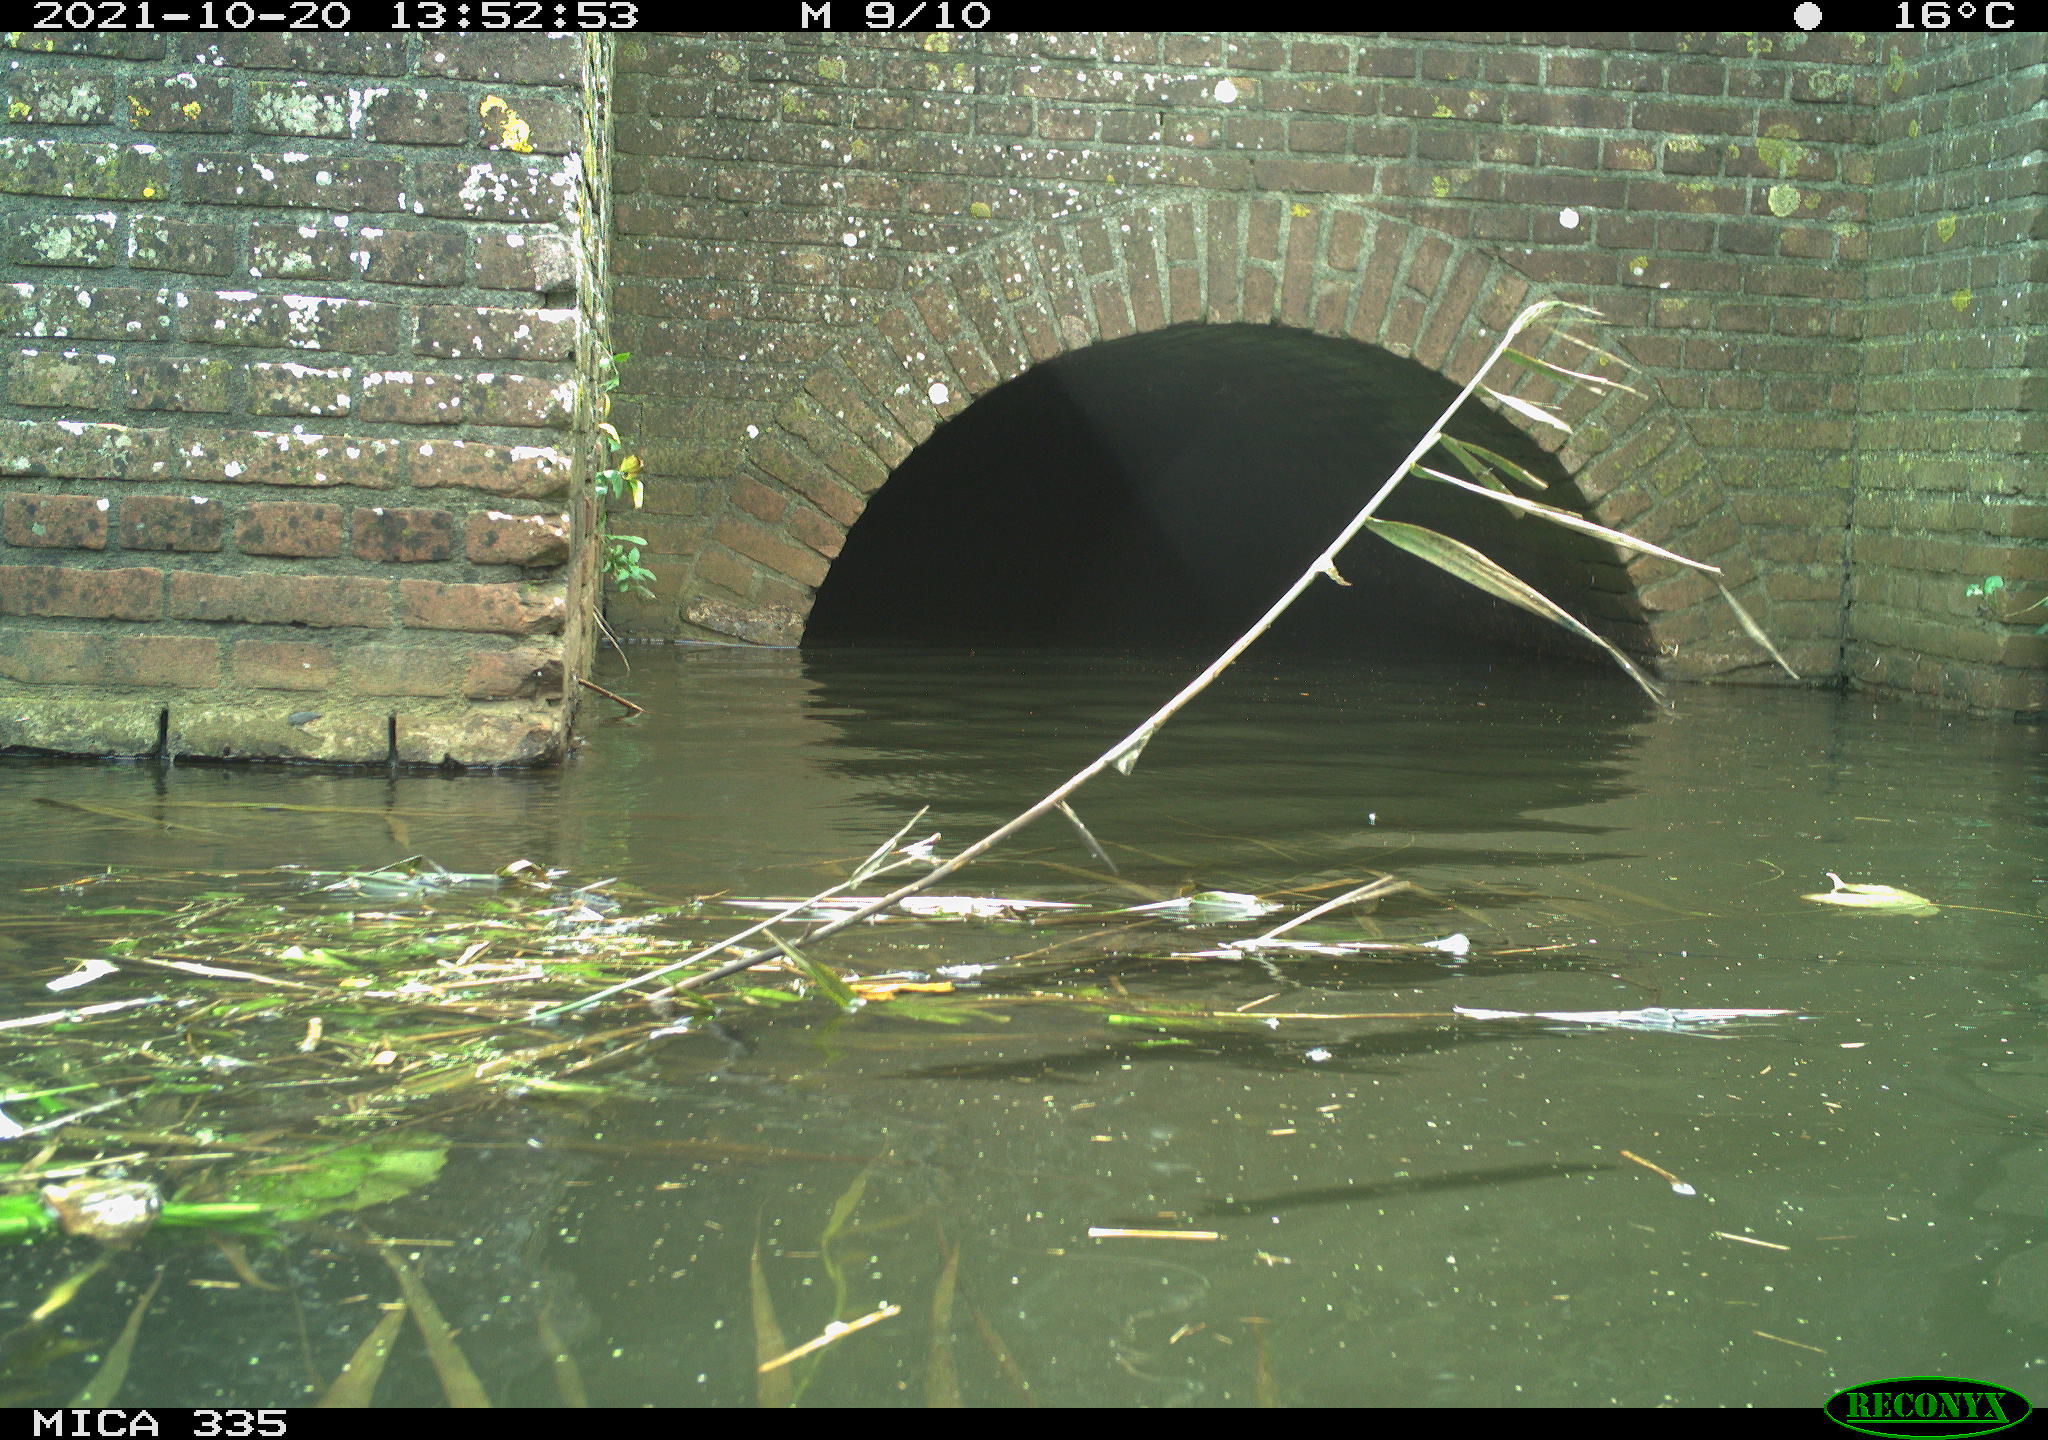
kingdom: Animalia
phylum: Chordata
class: Aves
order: Gruiformes
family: Rallidae
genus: Fulica
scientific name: Fulica atra
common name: Eurasian coot
